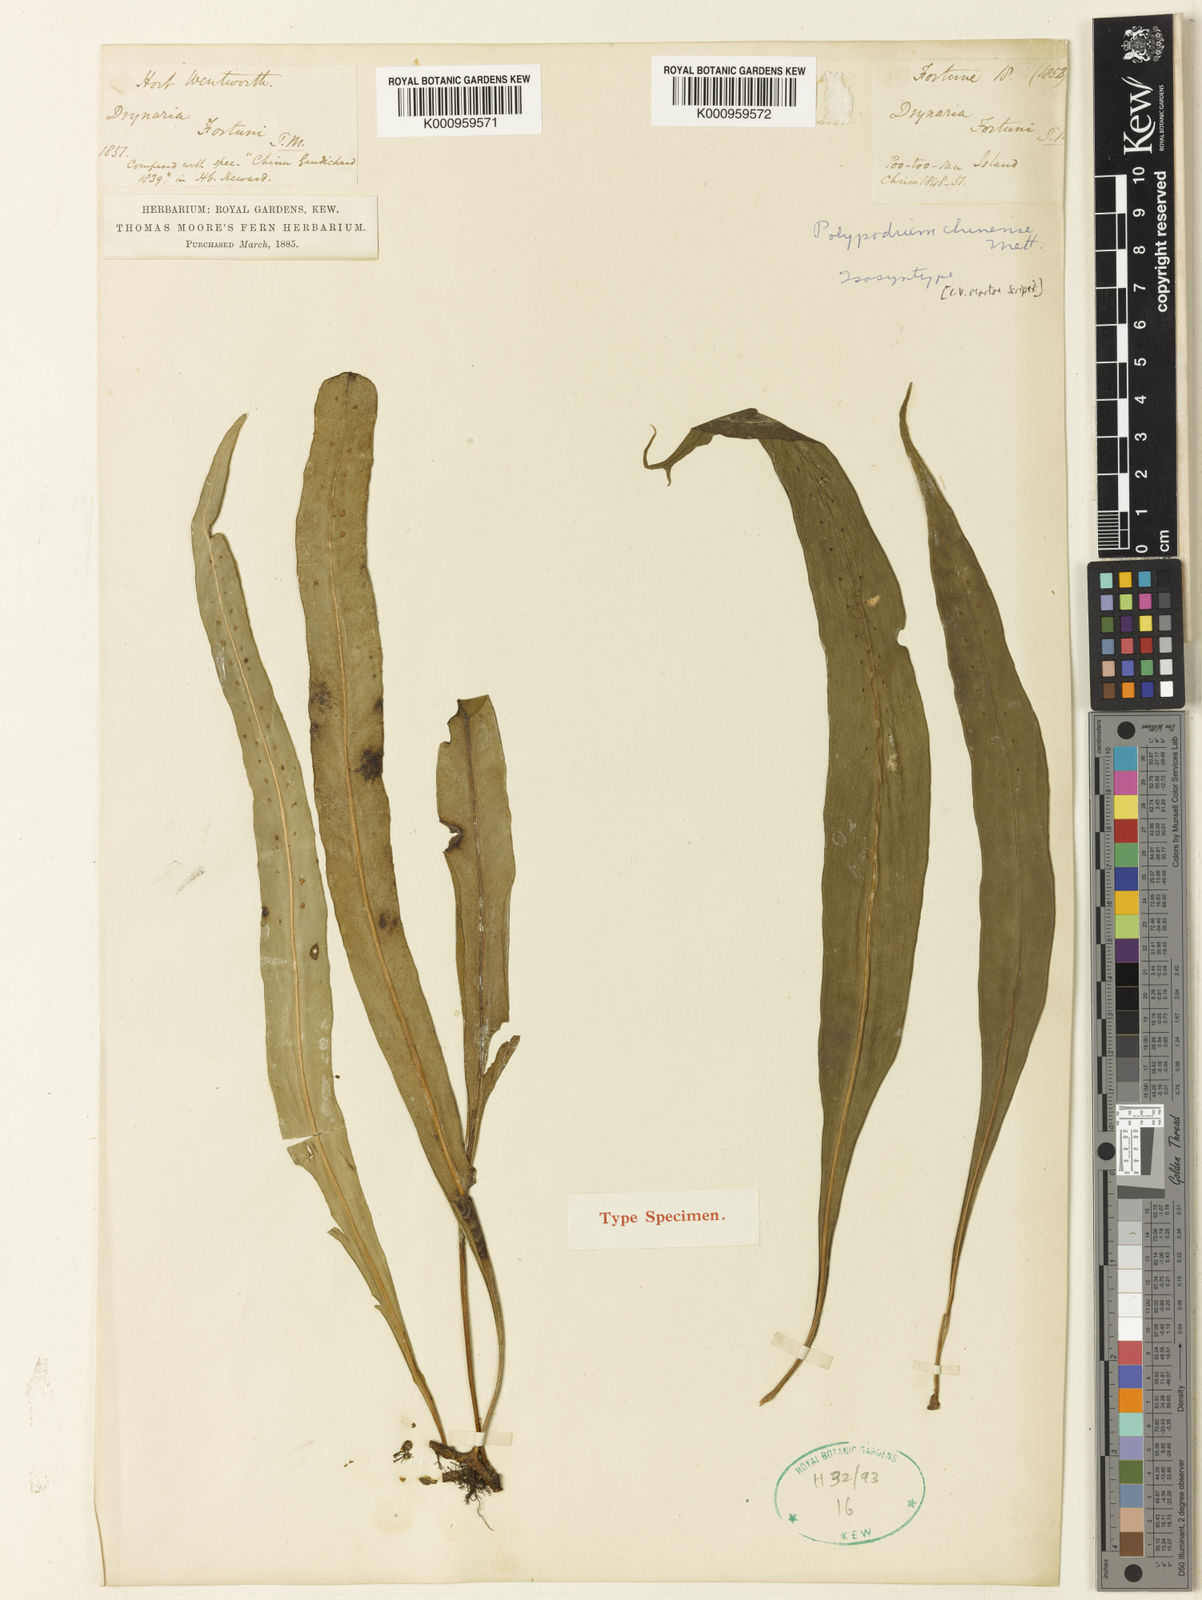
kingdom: Plantae
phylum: Tracheophyta
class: Polypodiopsida
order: Polypodiales
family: Polypodiaceae
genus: Lepisorus
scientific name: Lepisorus nudus
